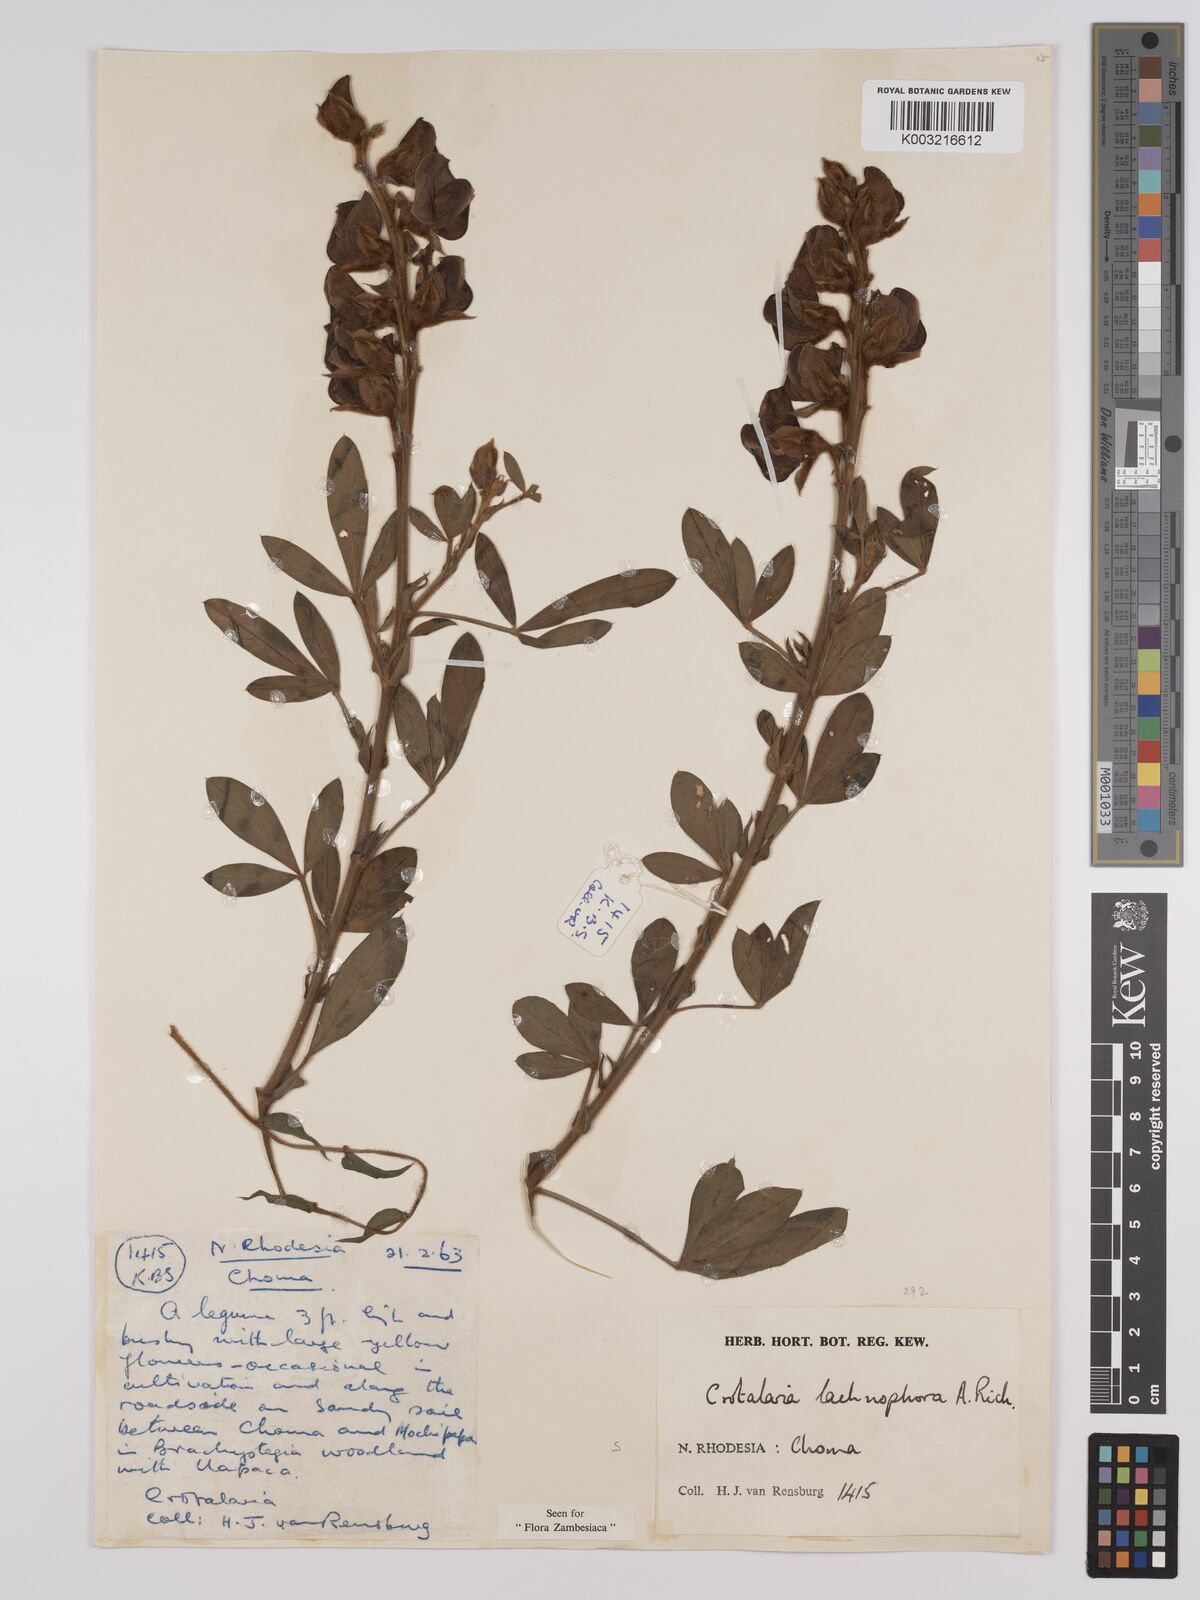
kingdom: Plantae
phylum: Tracheophyta
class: Magnoliopsida
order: Fabales
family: Fabaceae
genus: Crotalaria
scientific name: Crotalaria lachnophora
